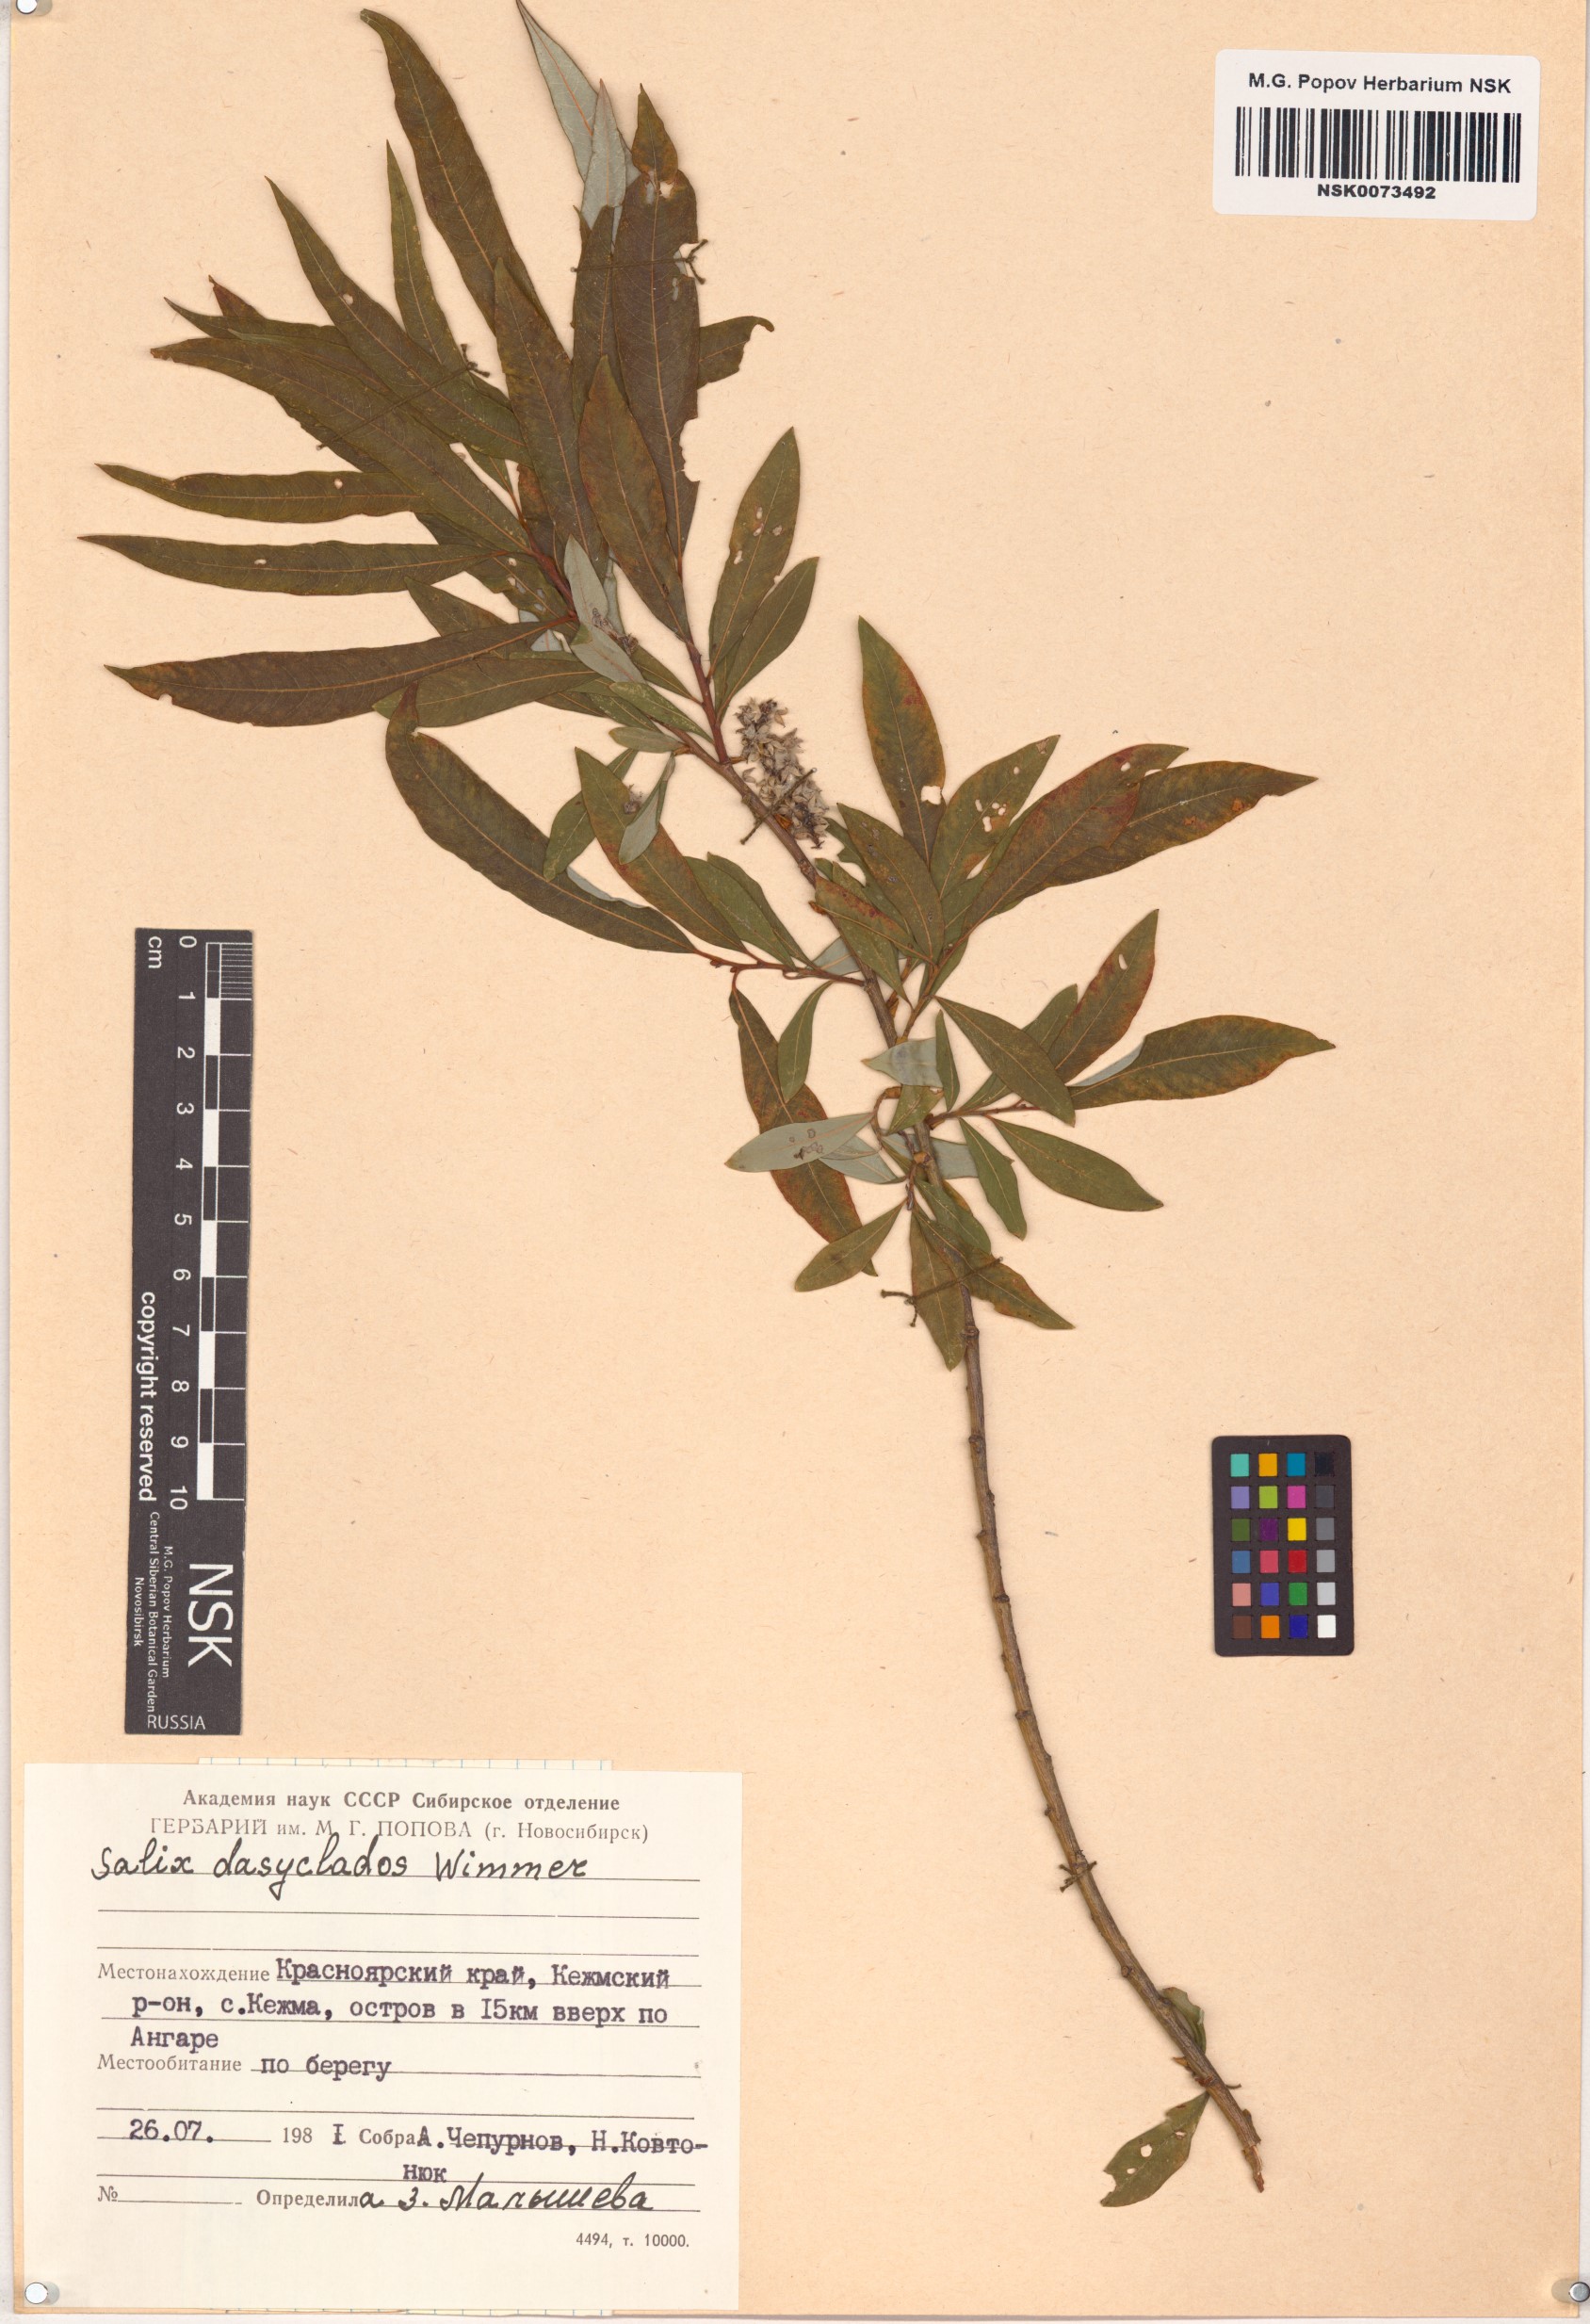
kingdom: Plantae
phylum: Tracheophyta
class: Magnoliopsida
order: Malpighiales
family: Salicaceae
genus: Salix
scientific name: Salix gmelinii
